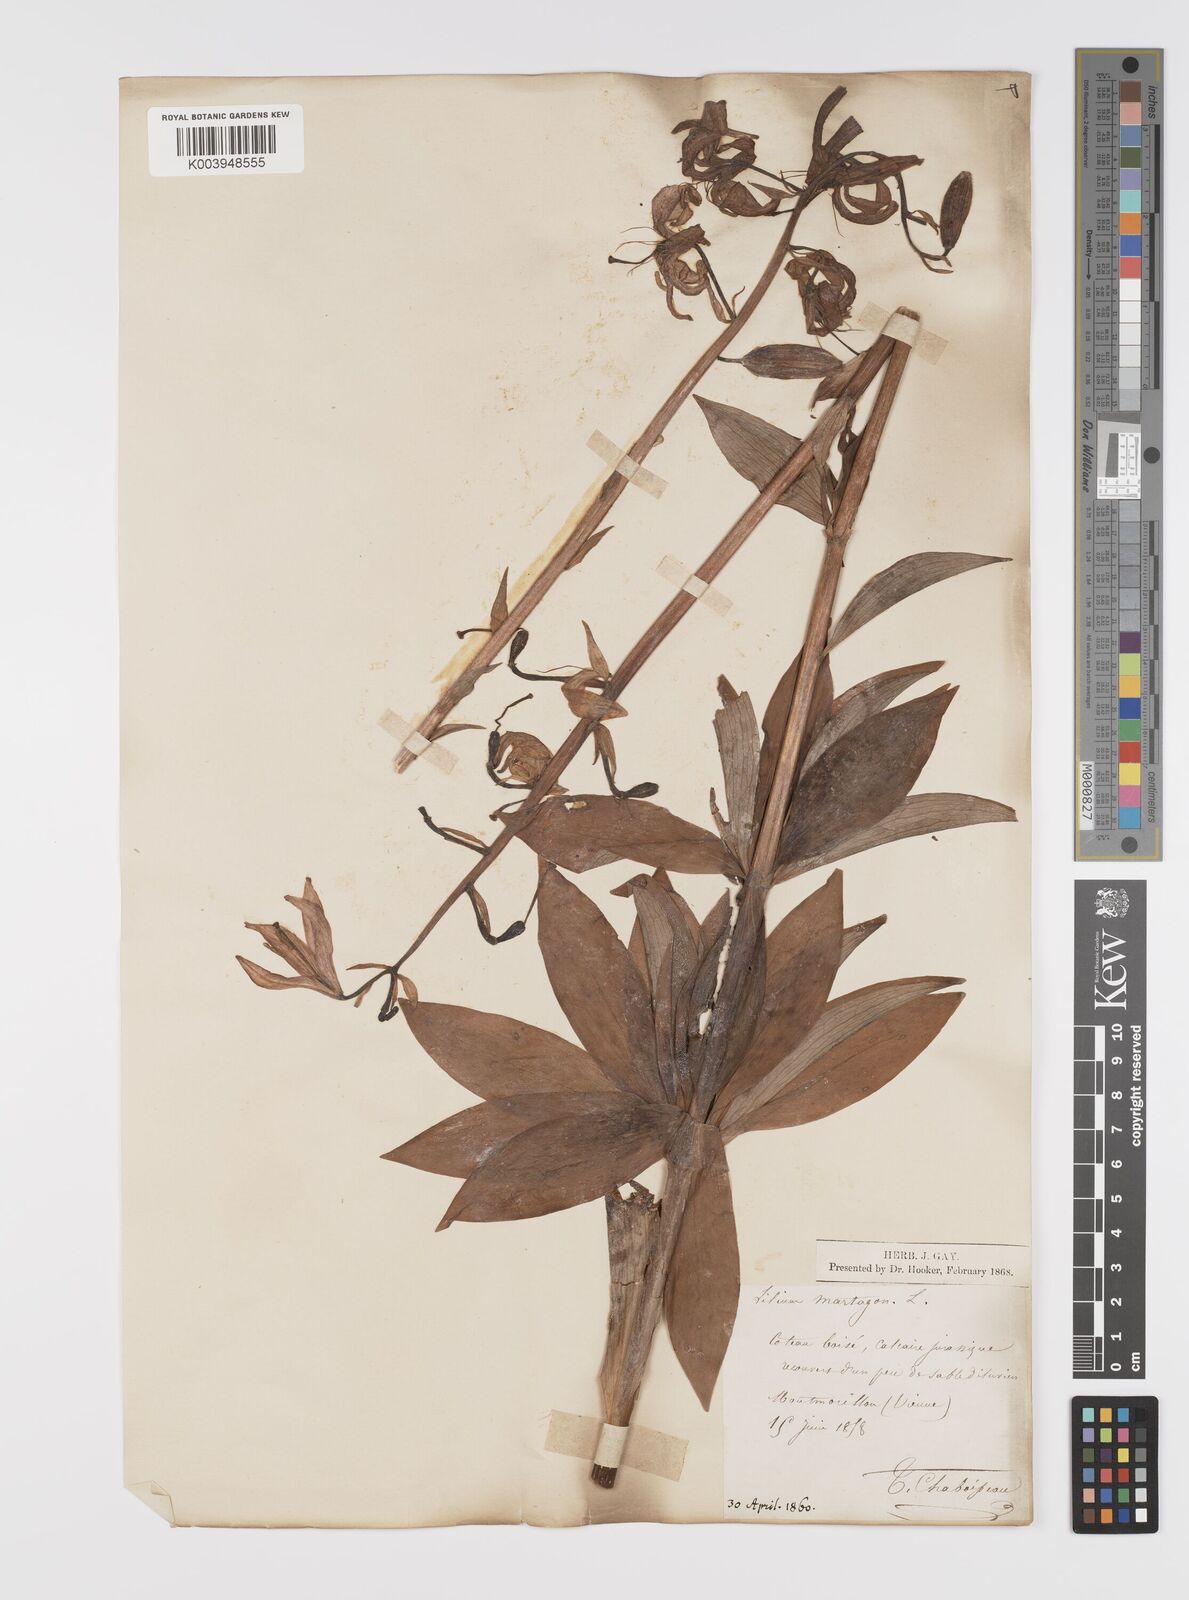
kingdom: Plantae
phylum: Tracheophyta
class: Liliopsida
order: Liliales
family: Liliaceae
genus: Lilium
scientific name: Lilium martagon
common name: Martagon lily
